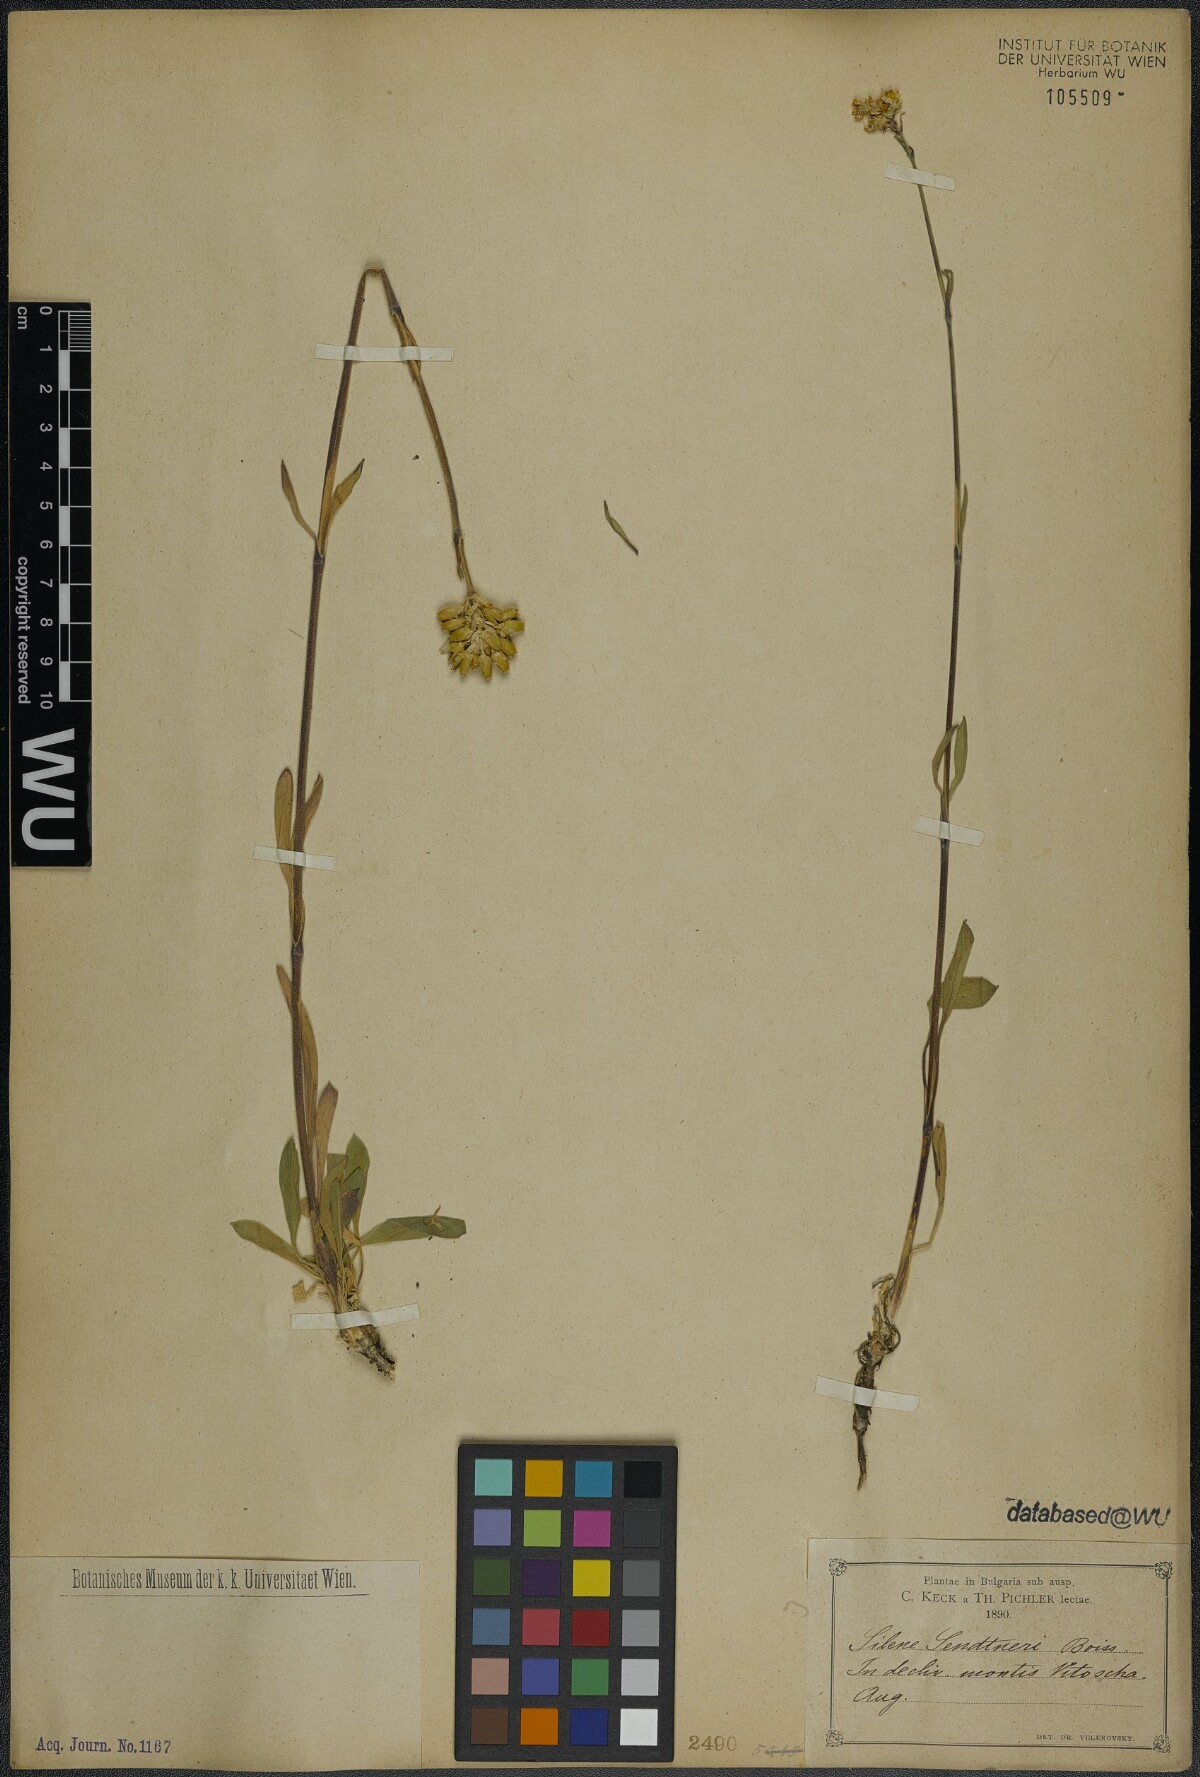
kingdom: Plantae
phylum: Tracheophyta
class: Magnoliopsida
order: Caryophyllales
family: Caryophyllaceae
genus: Silene
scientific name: Silene sendtneri
